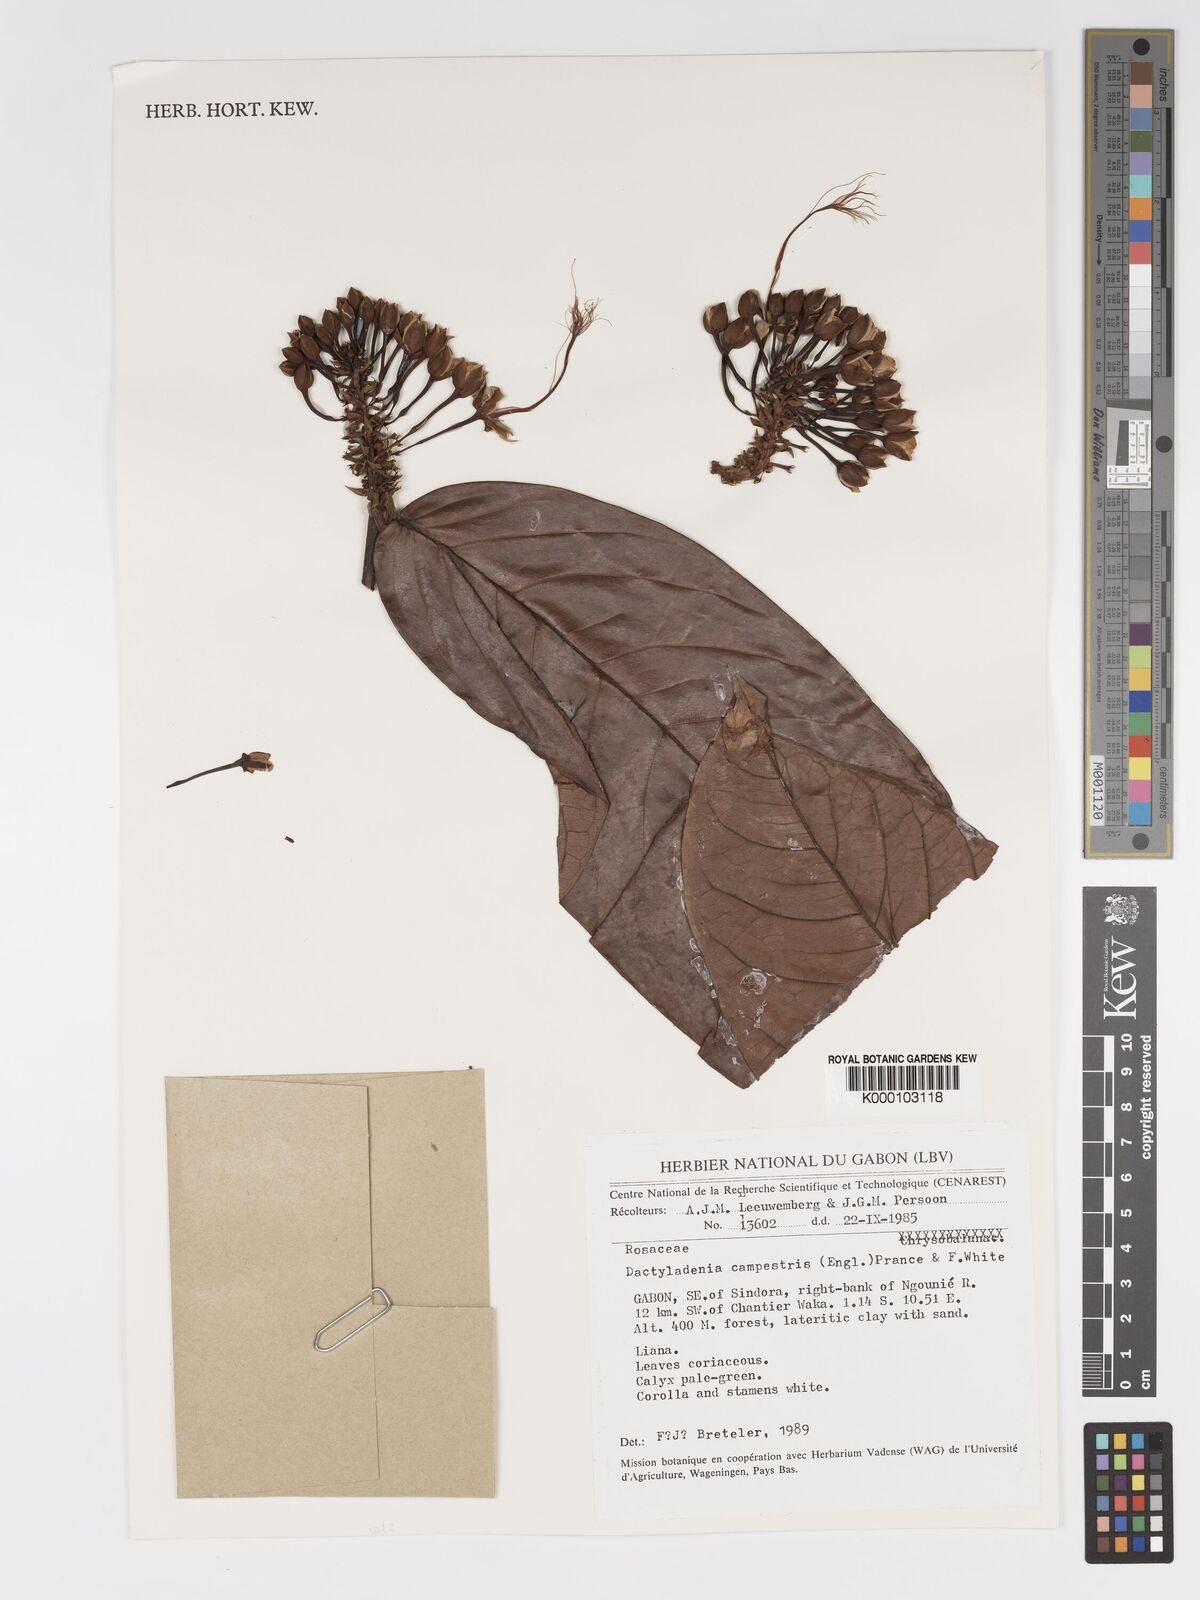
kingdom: Plantae
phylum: Tracheophyta
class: Magnoliopsida
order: Malpighiales
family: Chrysobalanaceae
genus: Dactyladenia
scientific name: Dactyladenia campestris
